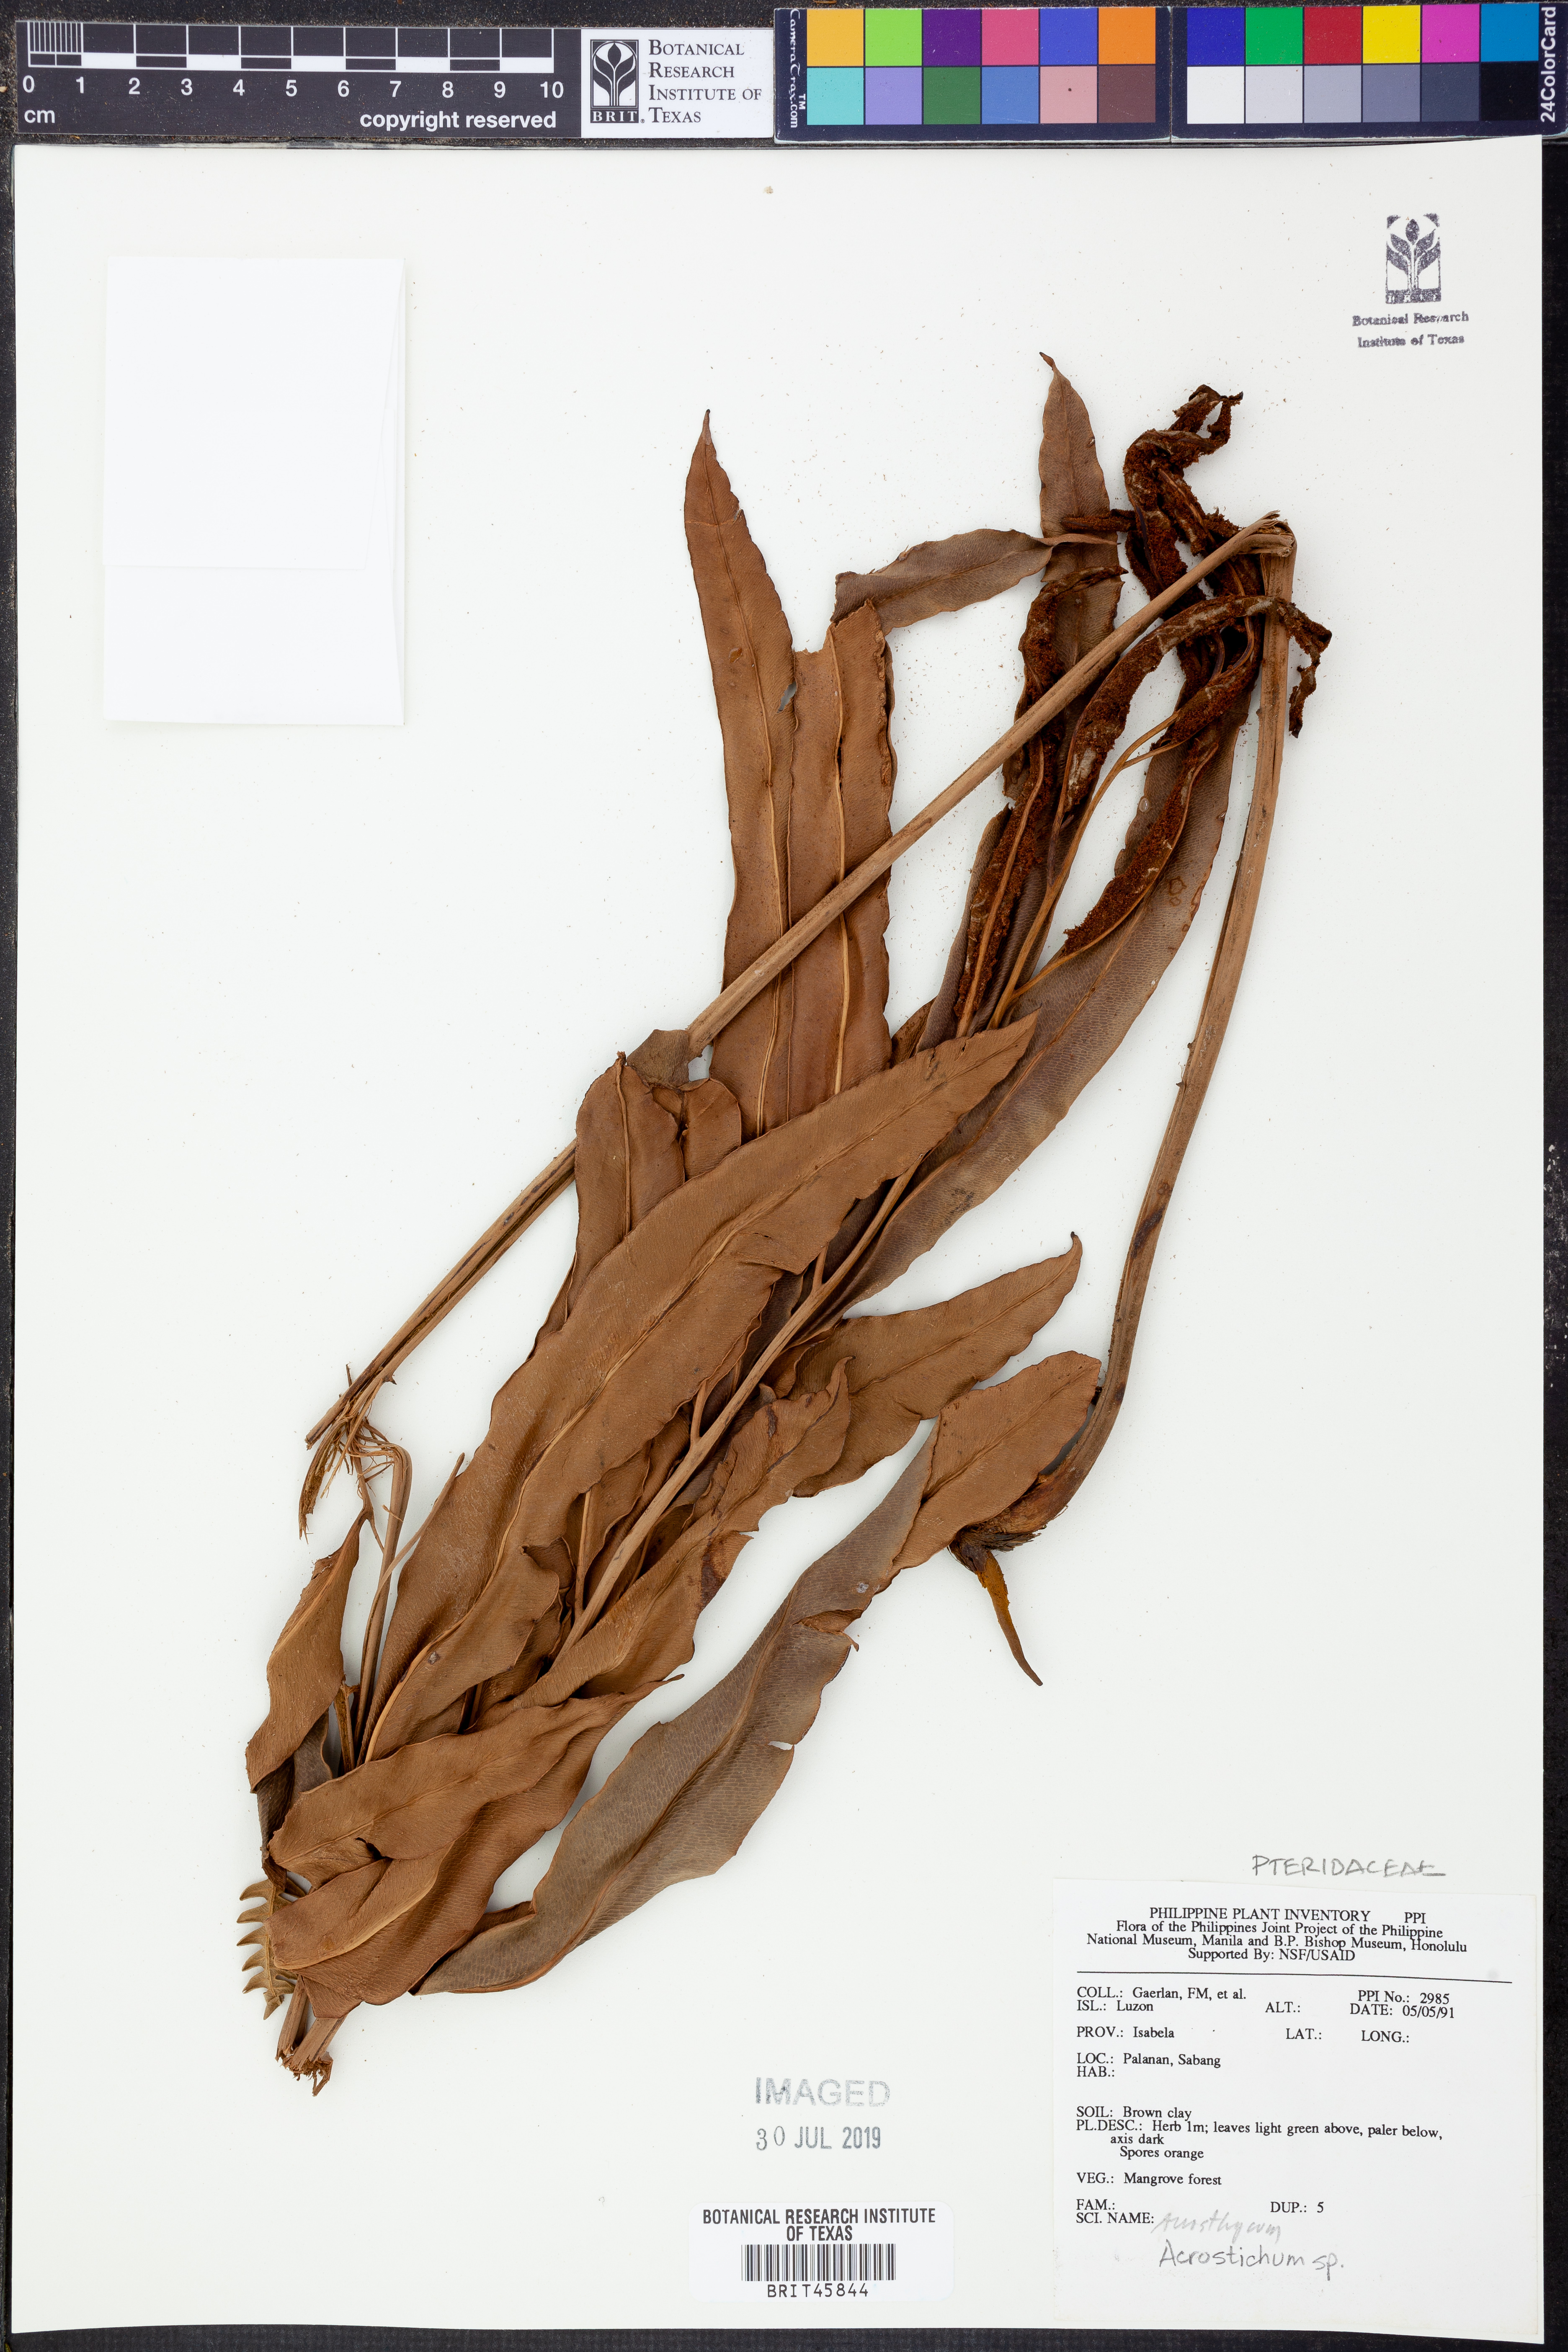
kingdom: Plantae
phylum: Tracheophyta
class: Polypodiopsida
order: Polypodiales
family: Pteridaceae
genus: Acrostichum
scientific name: Acrostichum
